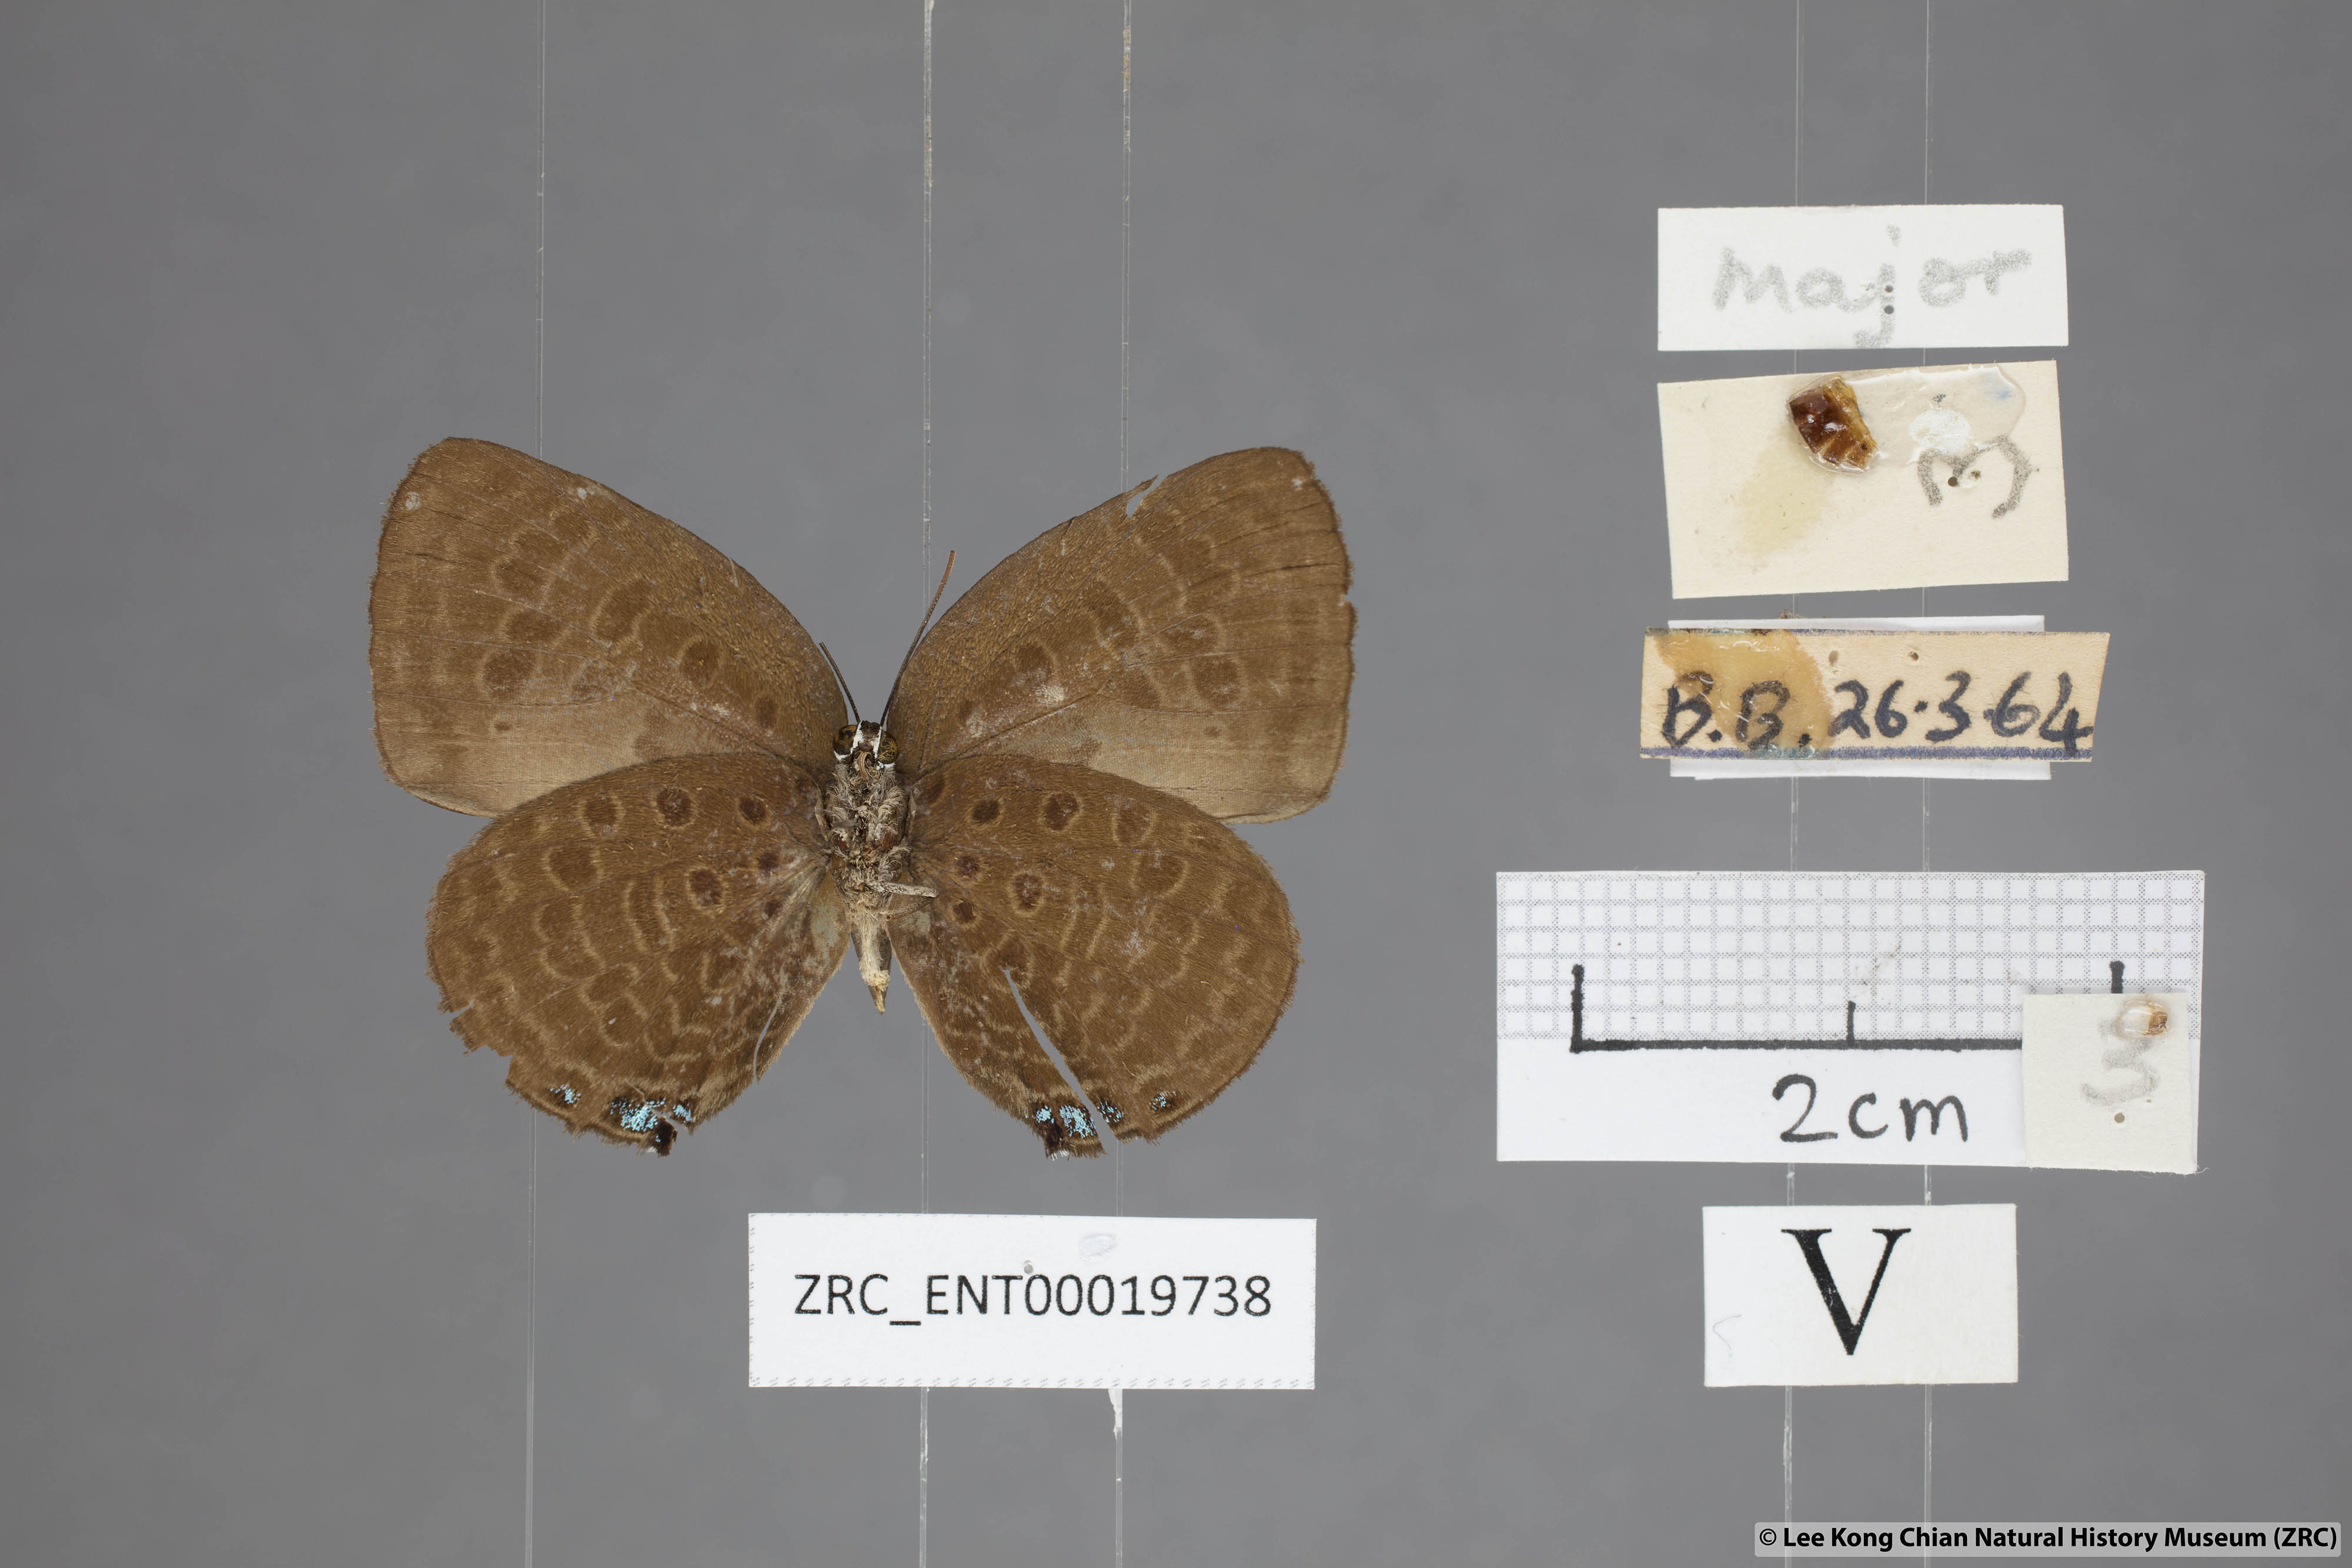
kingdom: Animalia
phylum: Arthropoda
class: Insecta
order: Lepidoptera
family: Lycaenidae
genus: Arhopala
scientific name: Arhopala
